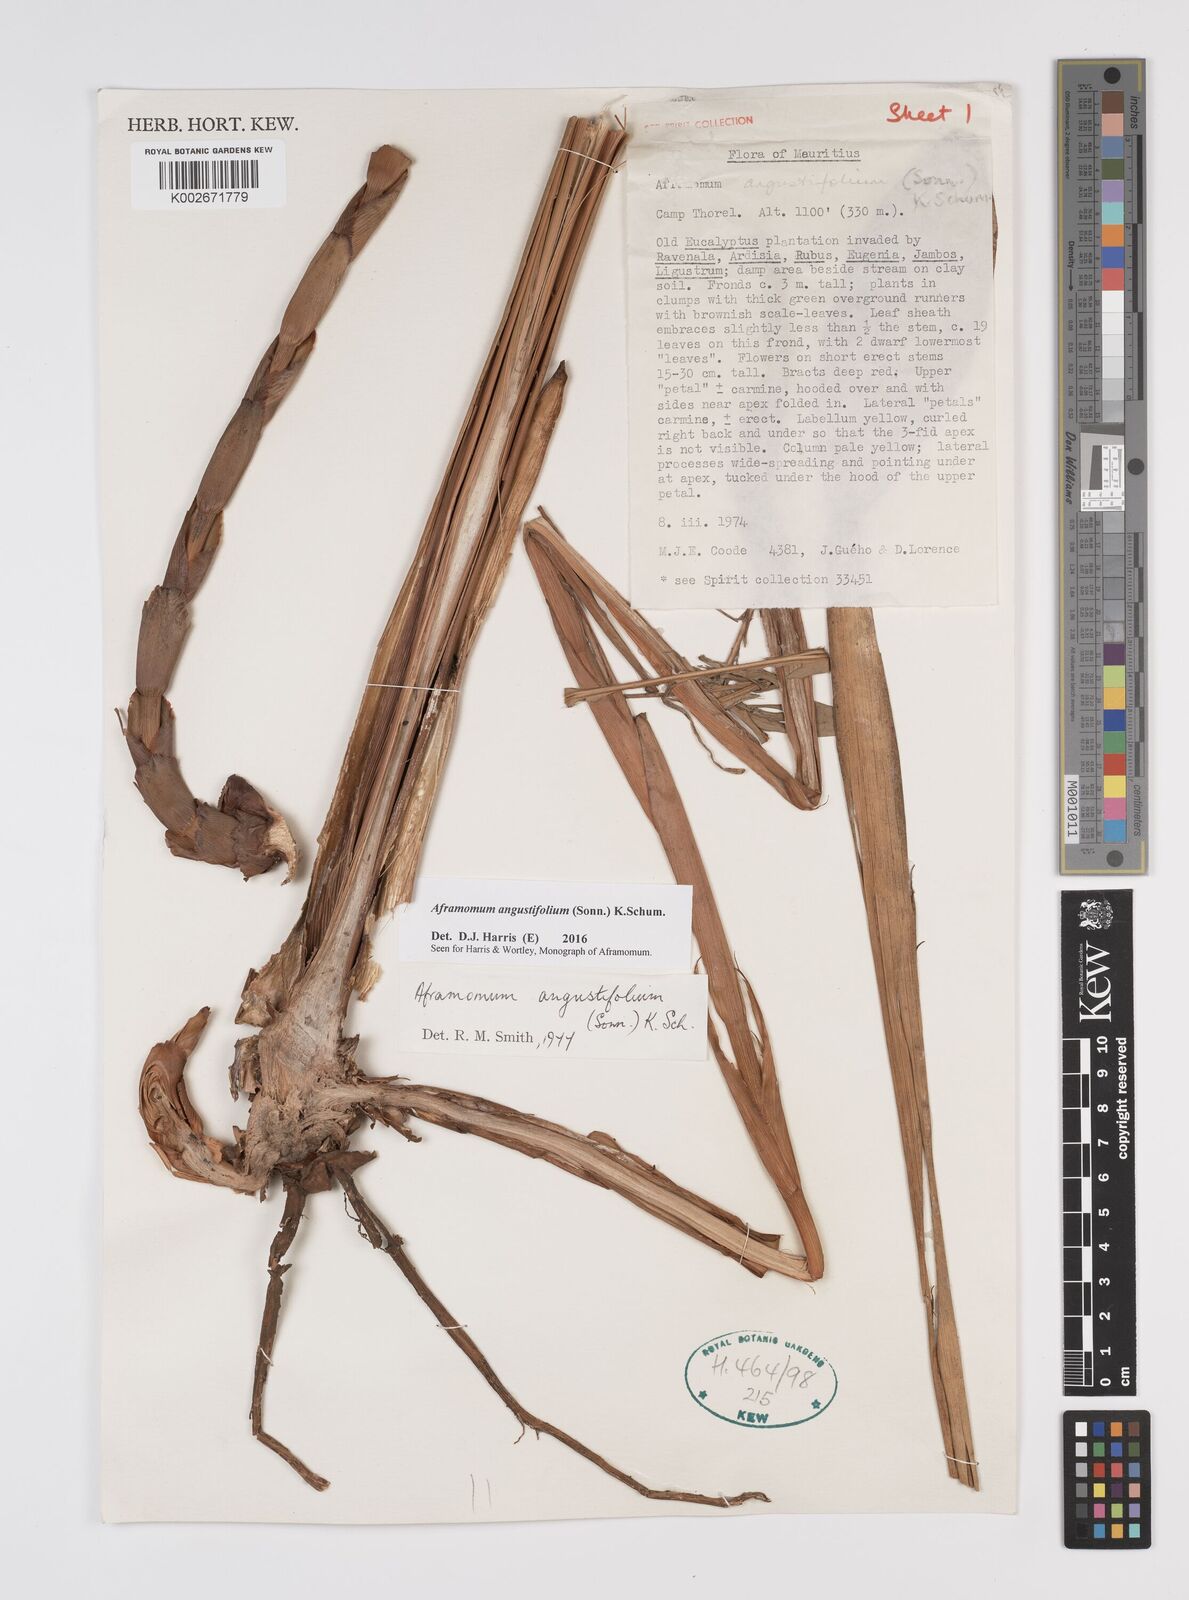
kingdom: Plantae
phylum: Tracheophyta
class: Liliopsida
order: Zingiberales
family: Zingiberaceae
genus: Aframomum
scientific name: Aframomum angustifolium
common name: Guinea grains
